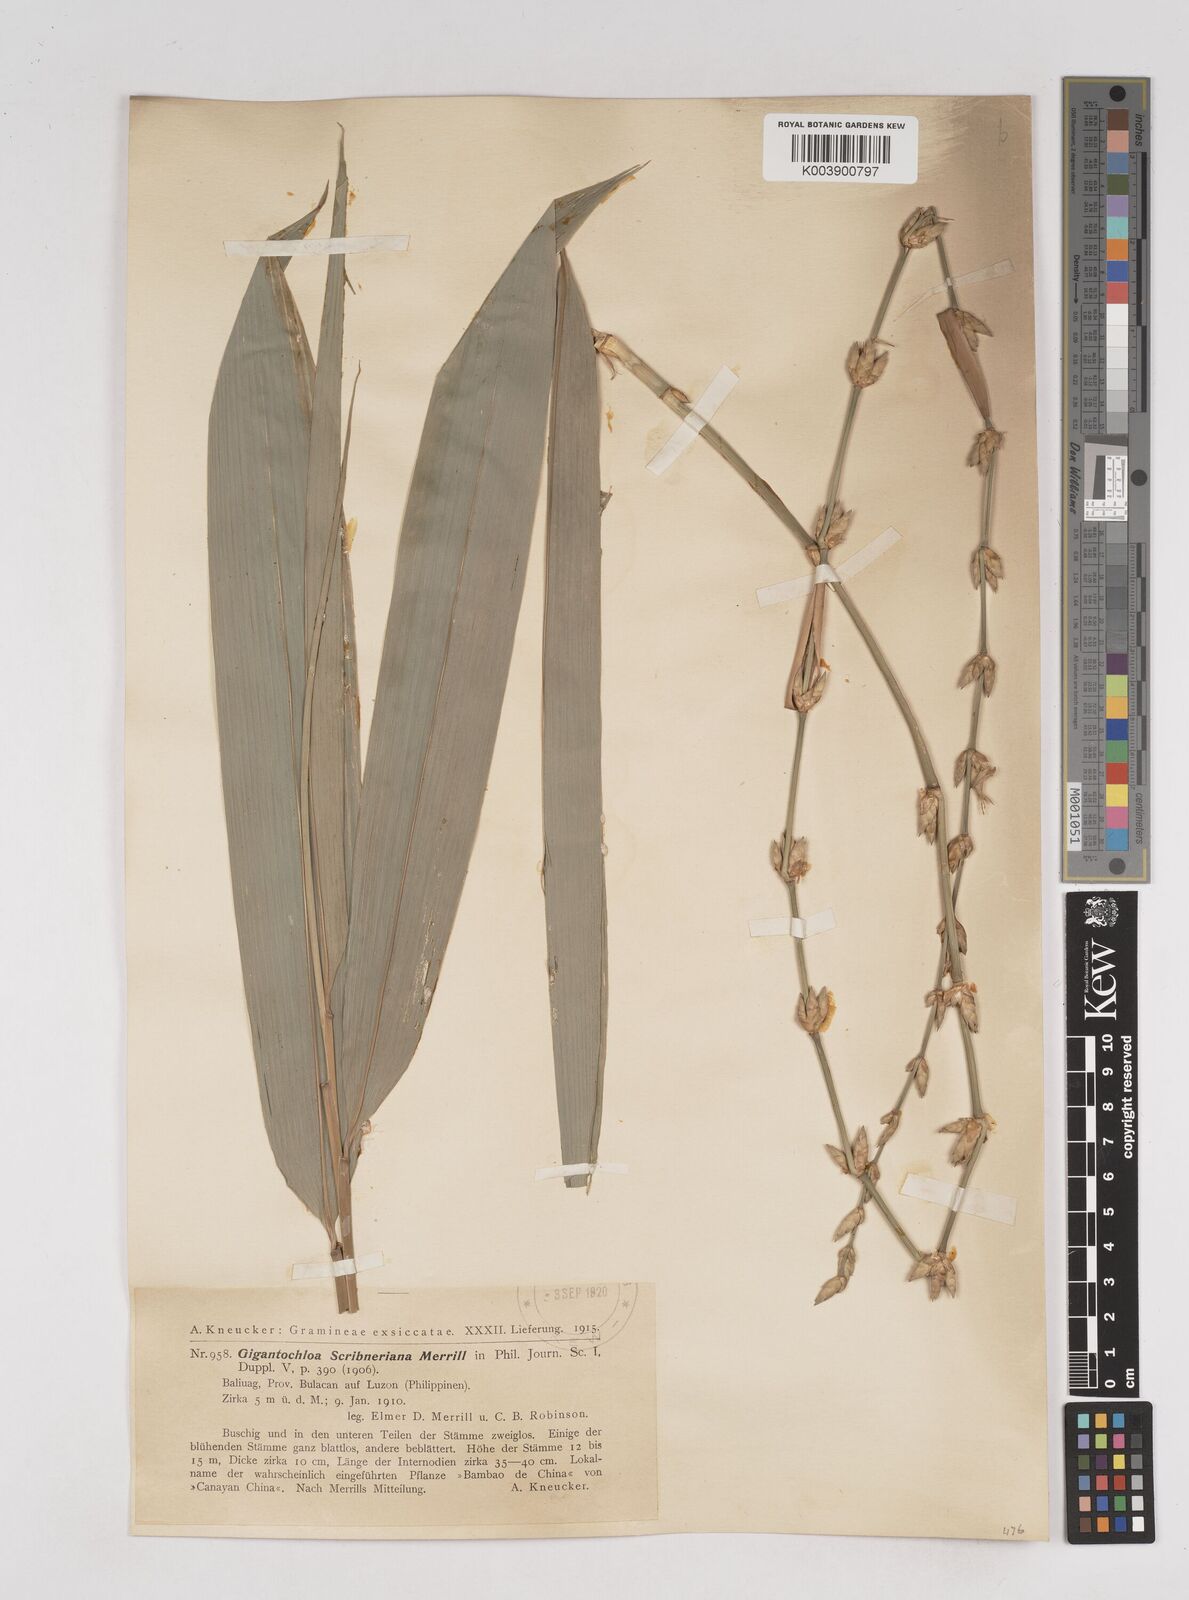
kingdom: Plantae
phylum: Tracheophyta
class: Liliopsida
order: Poales
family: Poaceae
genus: Gigantochloa
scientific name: Gigantochloa levis
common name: Smooth-shoot gigantochloa
